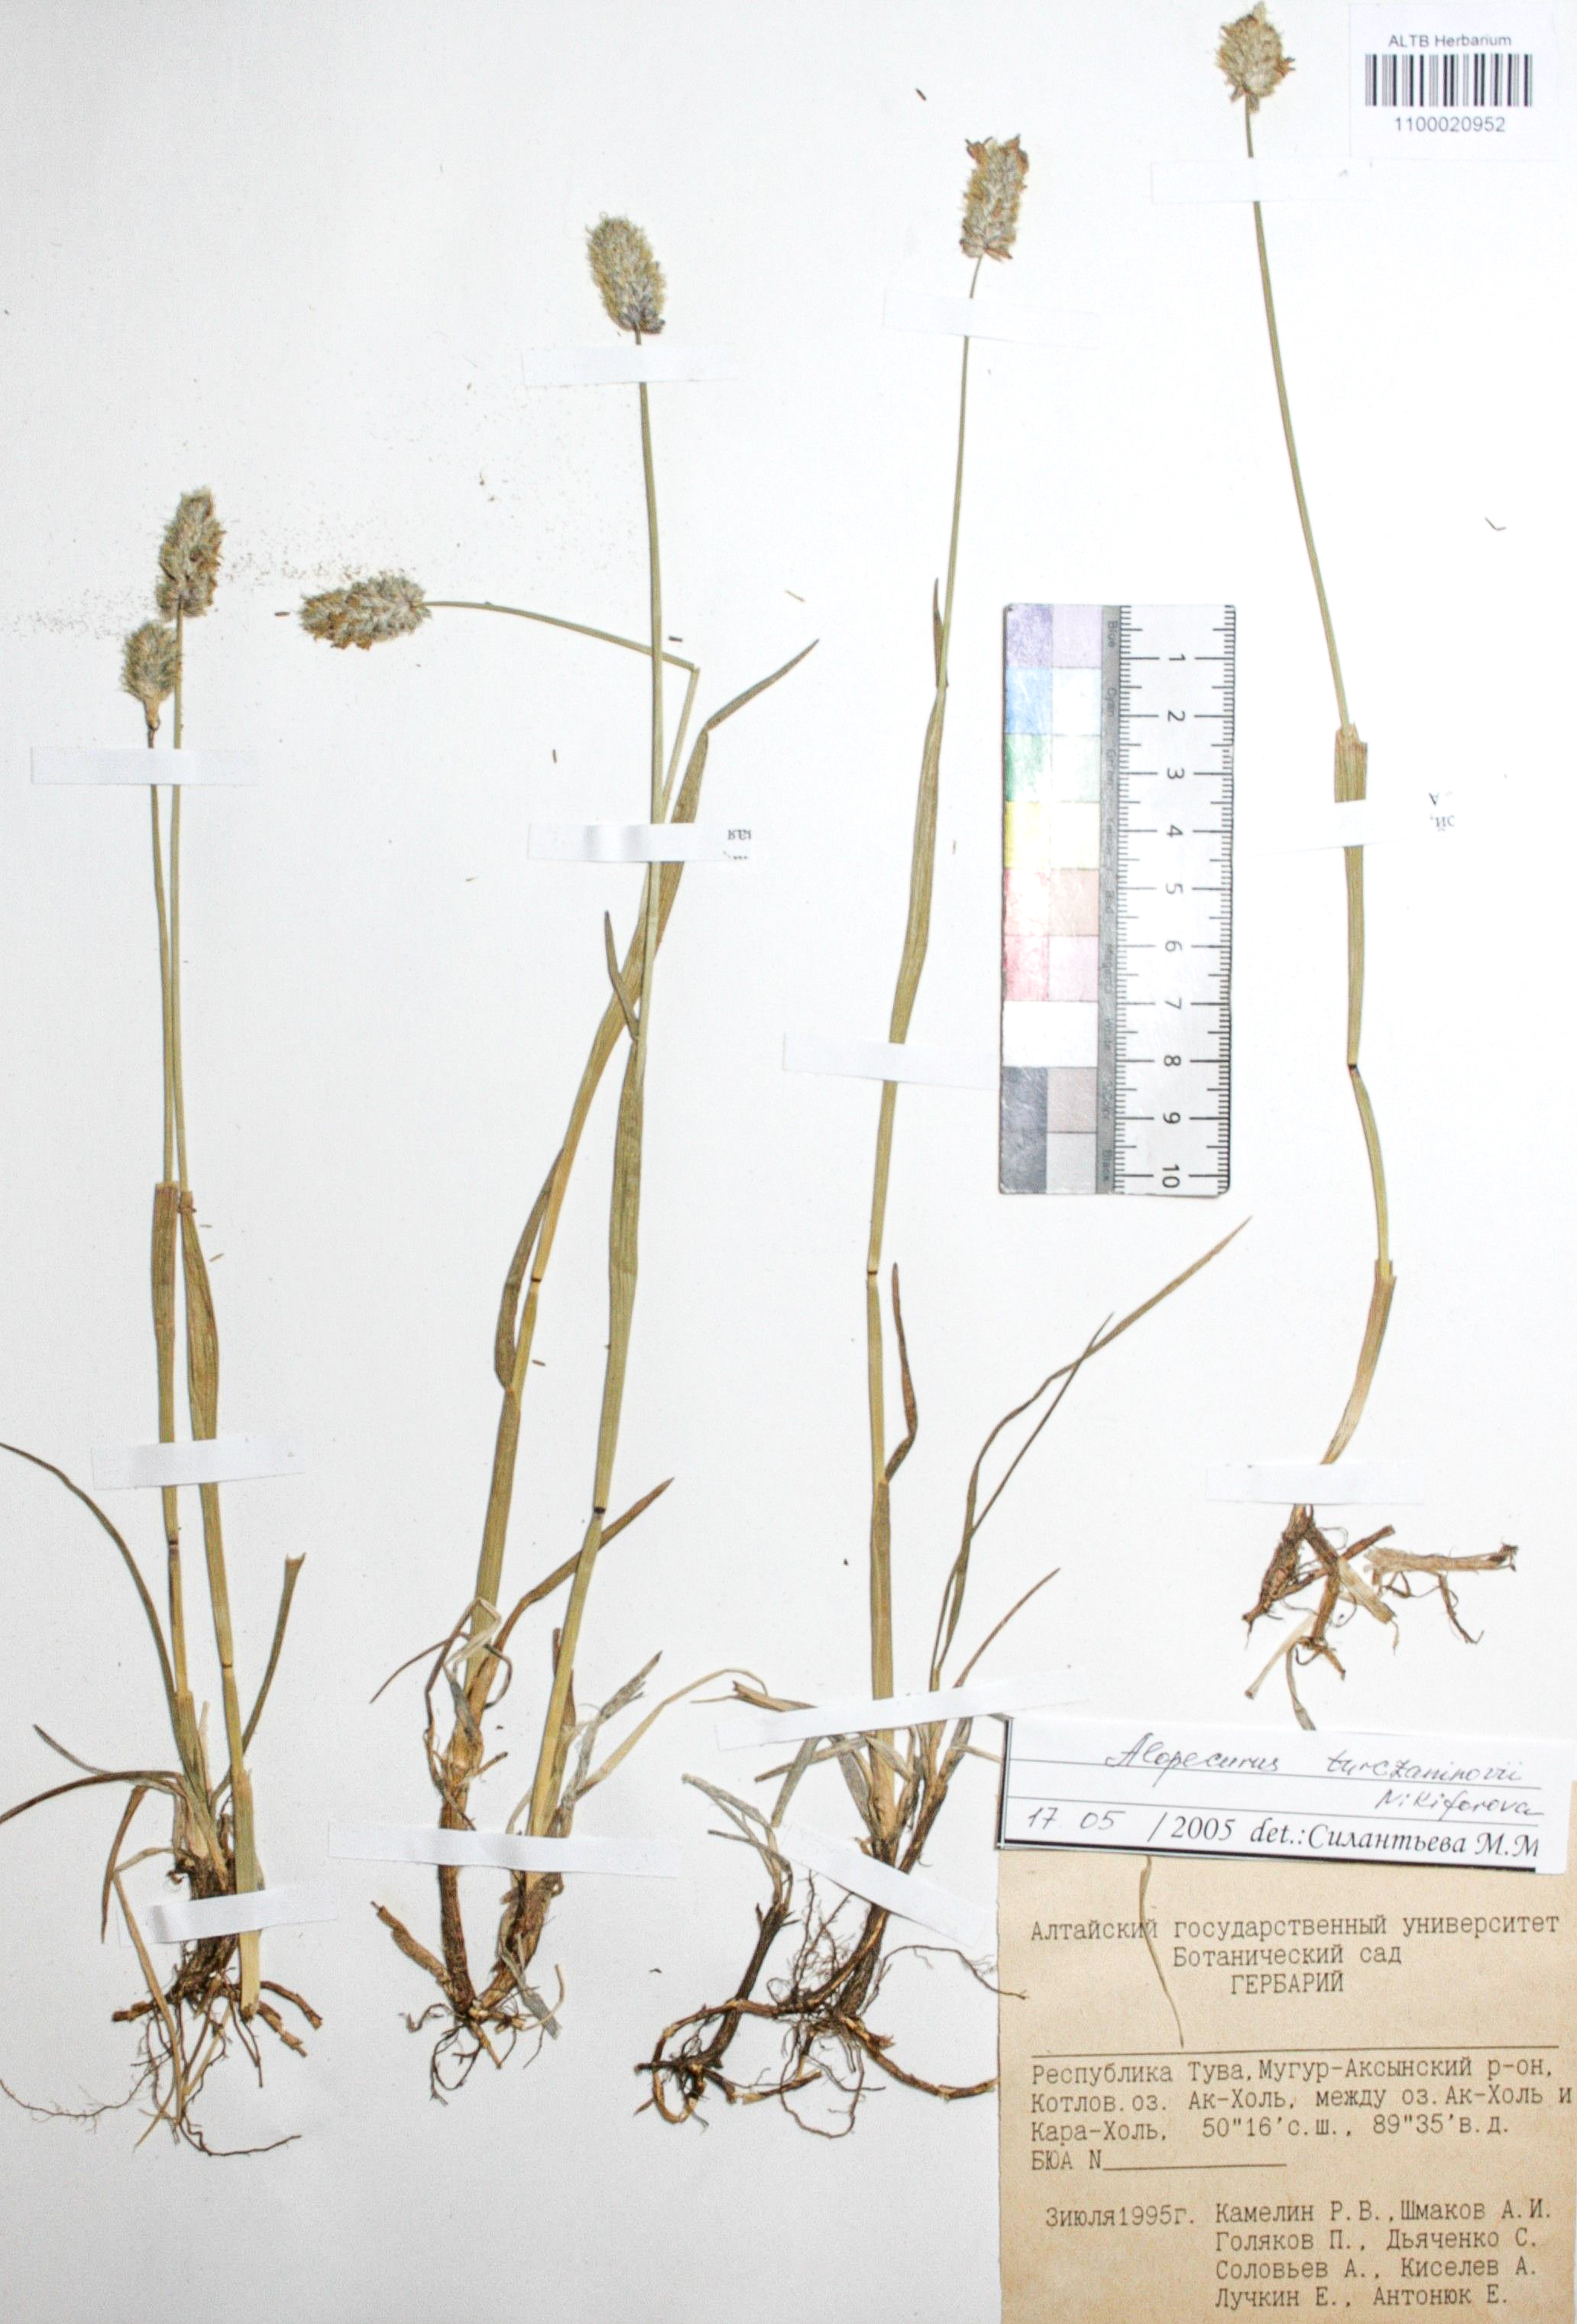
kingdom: Plantae
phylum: Tracheophyta
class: Liliopsida
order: Poales
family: Poaceae
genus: Alopecurus
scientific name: Alopecurus turczaninovii
